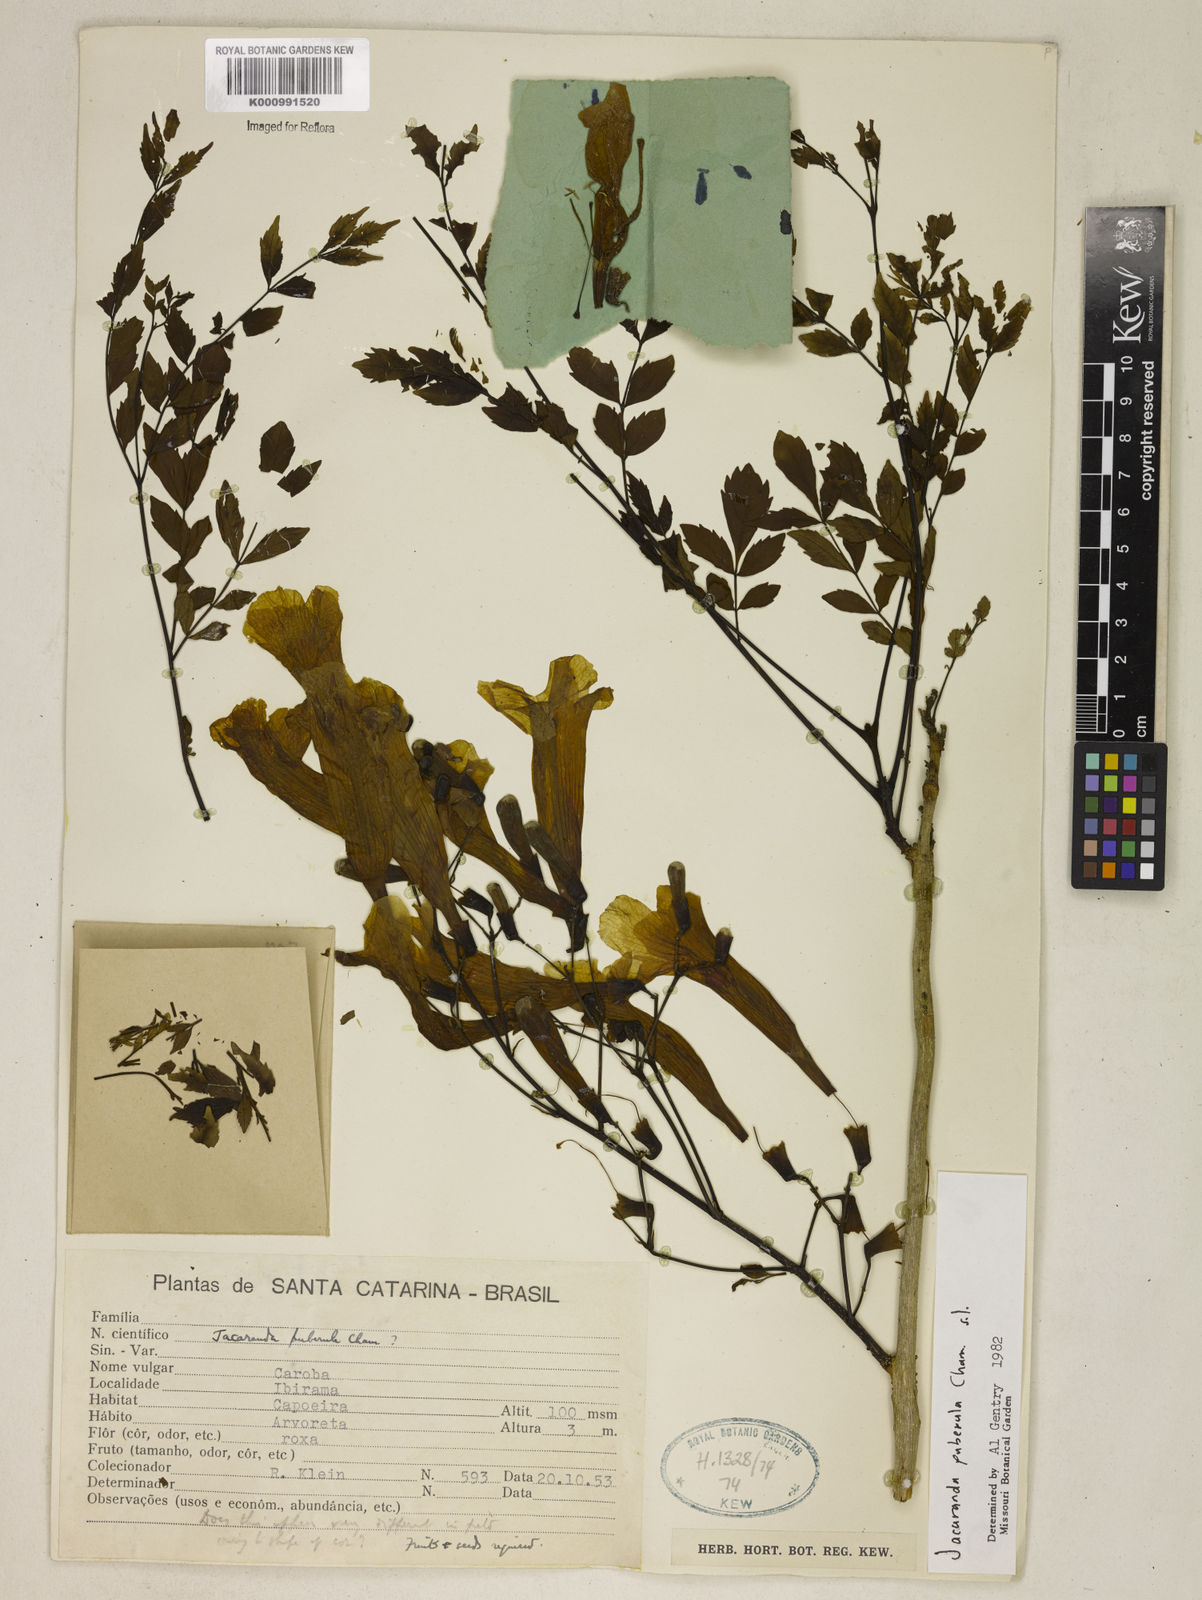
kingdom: Plantae
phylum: Tracheophyta
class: Magnoliopsida
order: Lamiales
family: Bignoniaceae
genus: Jacaranda
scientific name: Jacaranda puberula
